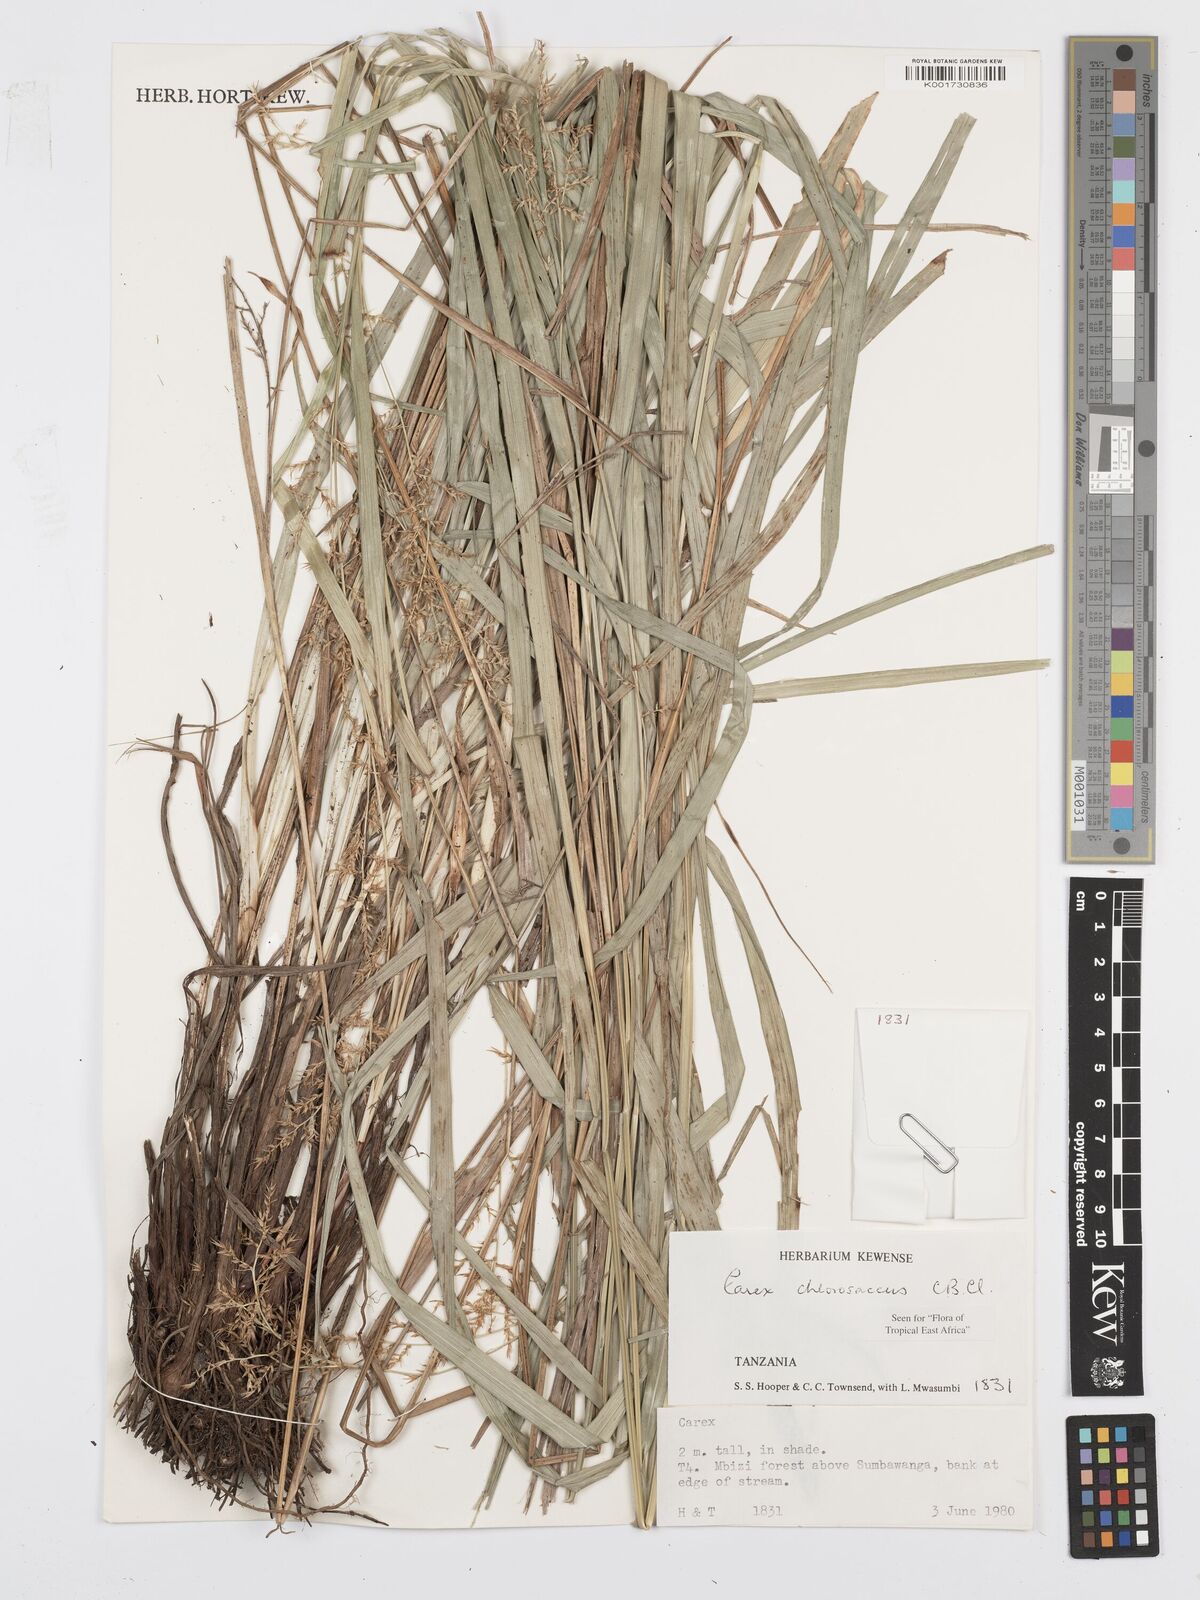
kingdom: Plantae
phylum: Tracheophyta
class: Liliopsida
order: Poales
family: Cyperaceae
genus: Carex
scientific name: Carex chlorosaccus
